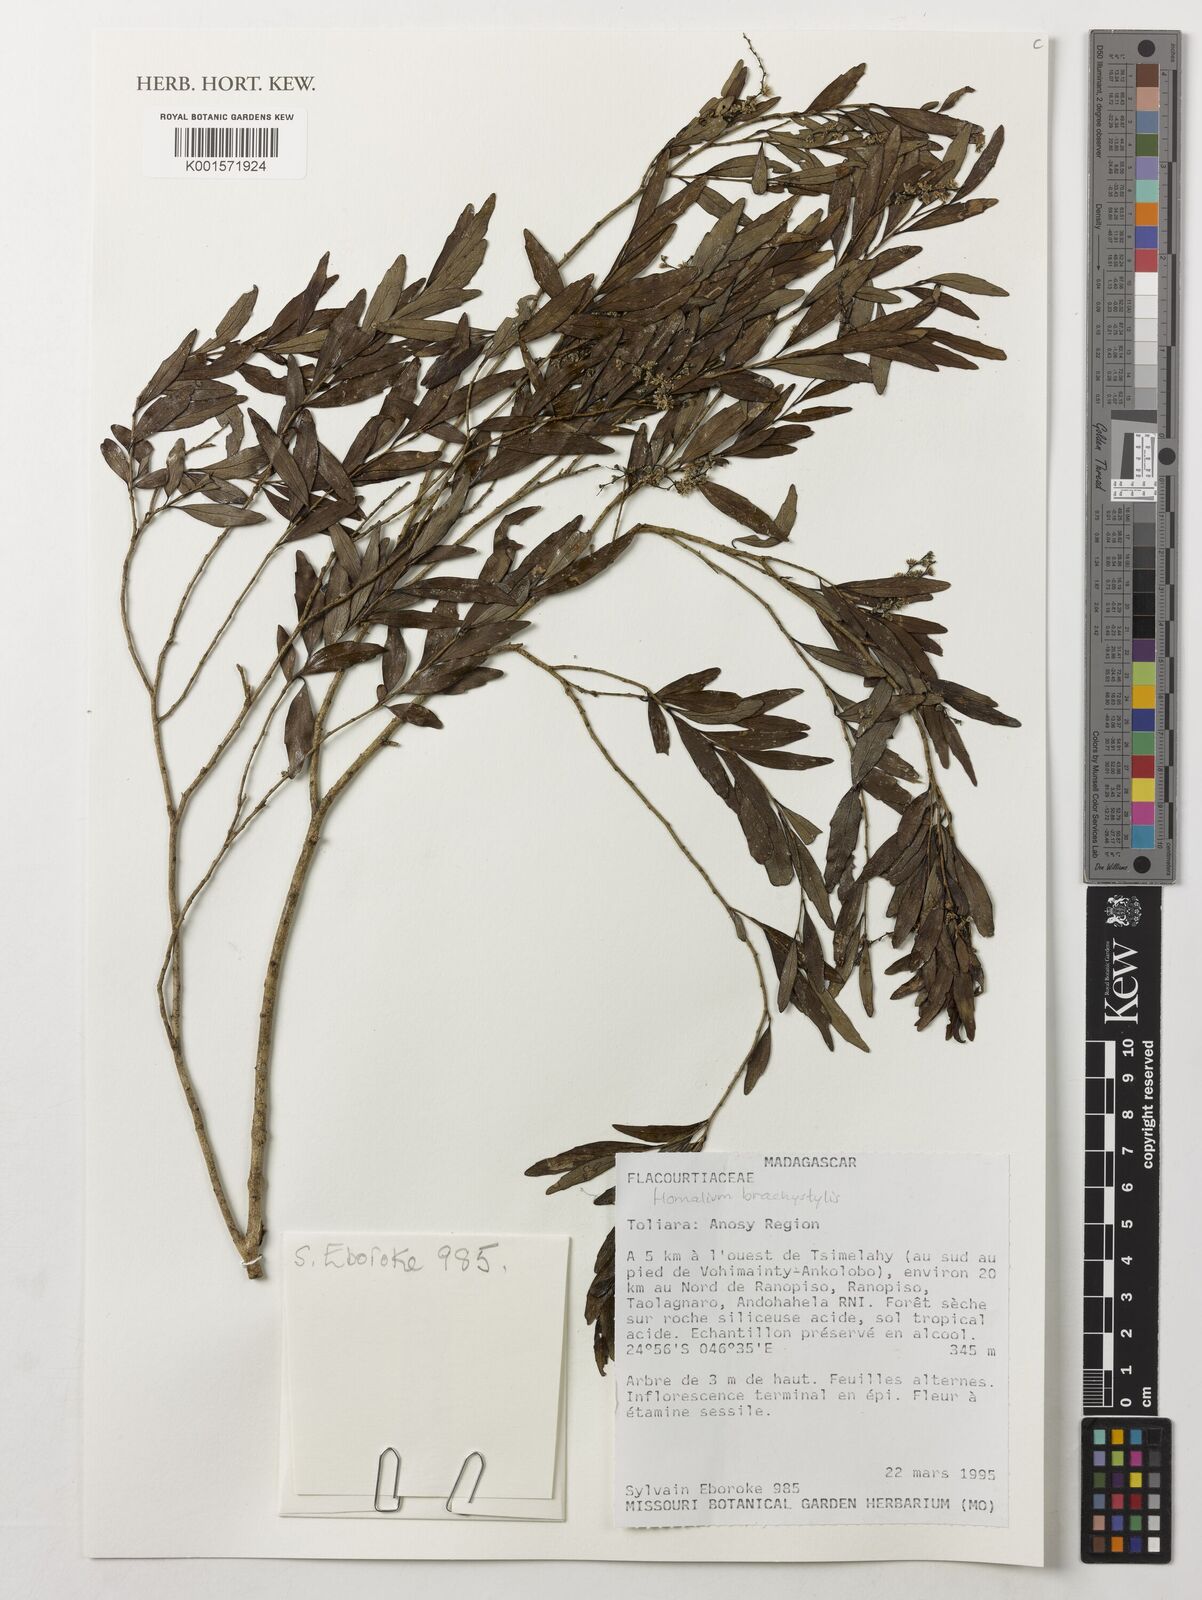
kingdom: Plantae
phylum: Tracheophyta
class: Magnoliopsida
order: Malpighiales
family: Salicaceae
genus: Homalium
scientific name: Homalium brachystylis
